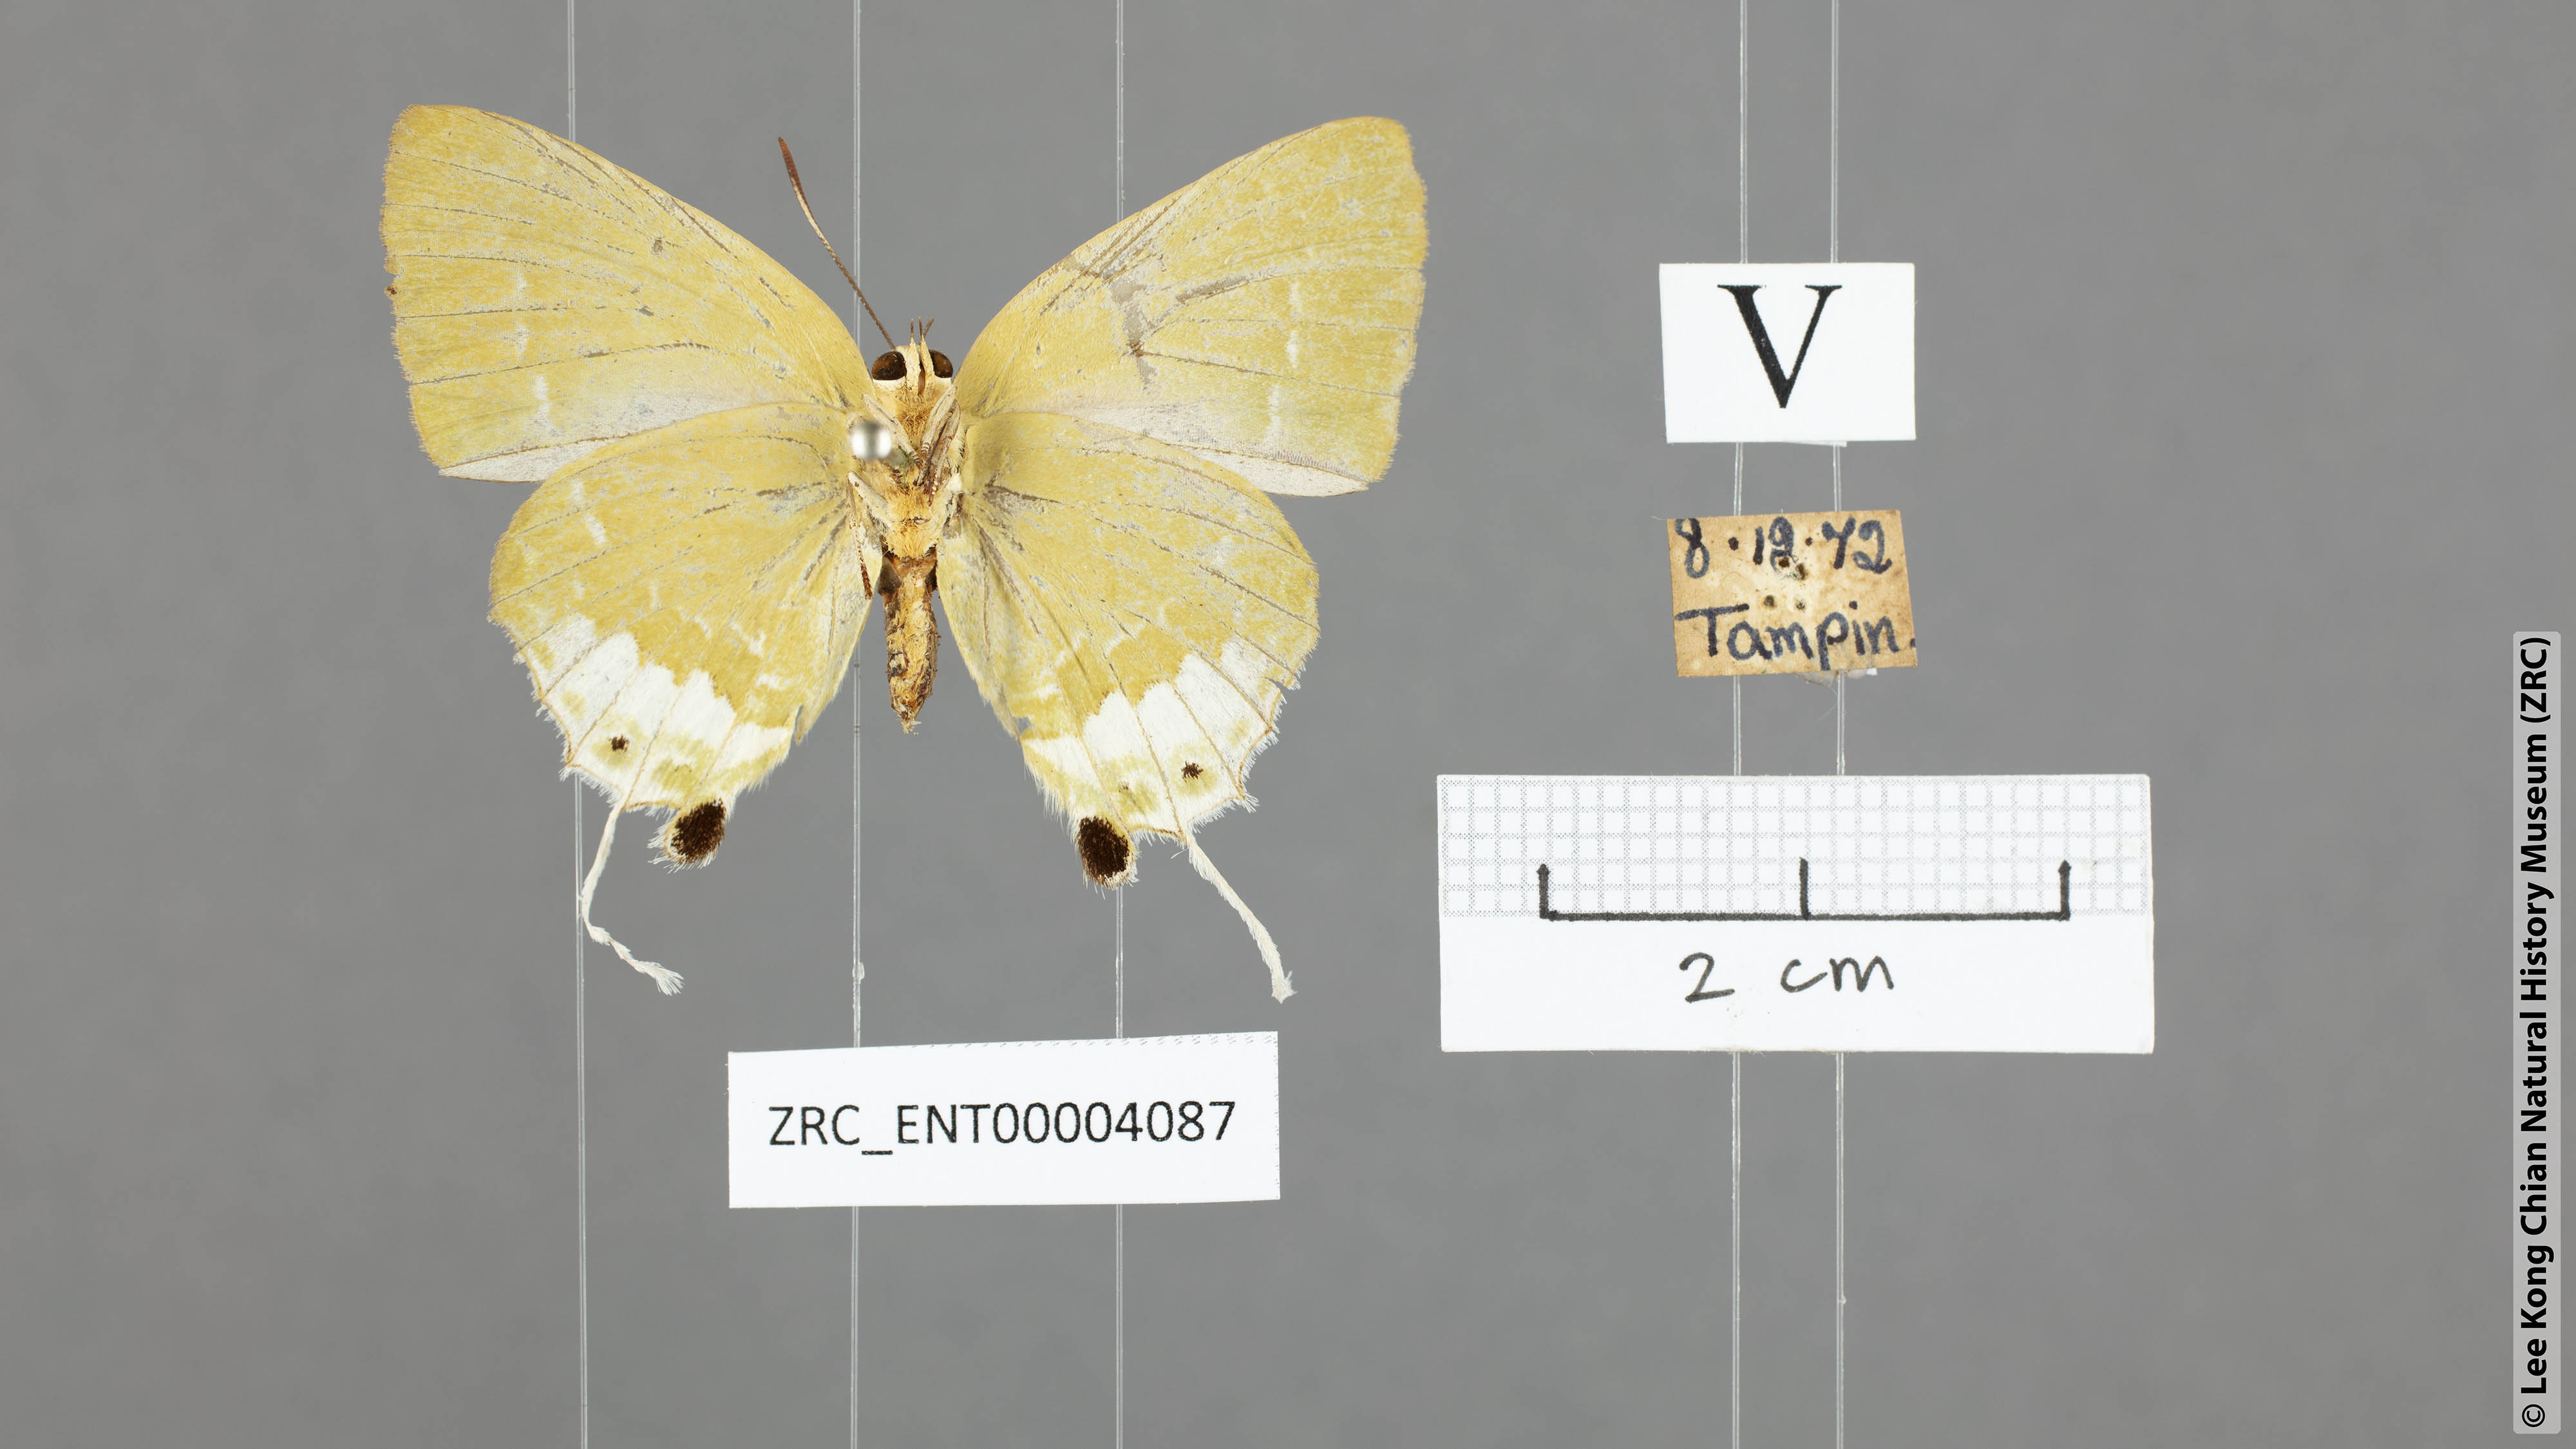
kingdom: Animalia
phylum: Arthropoda
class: Insecta
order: Lepidoptera
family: Lycaenidae
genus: Artipe
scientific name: Artipe eryx
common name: Green flash
